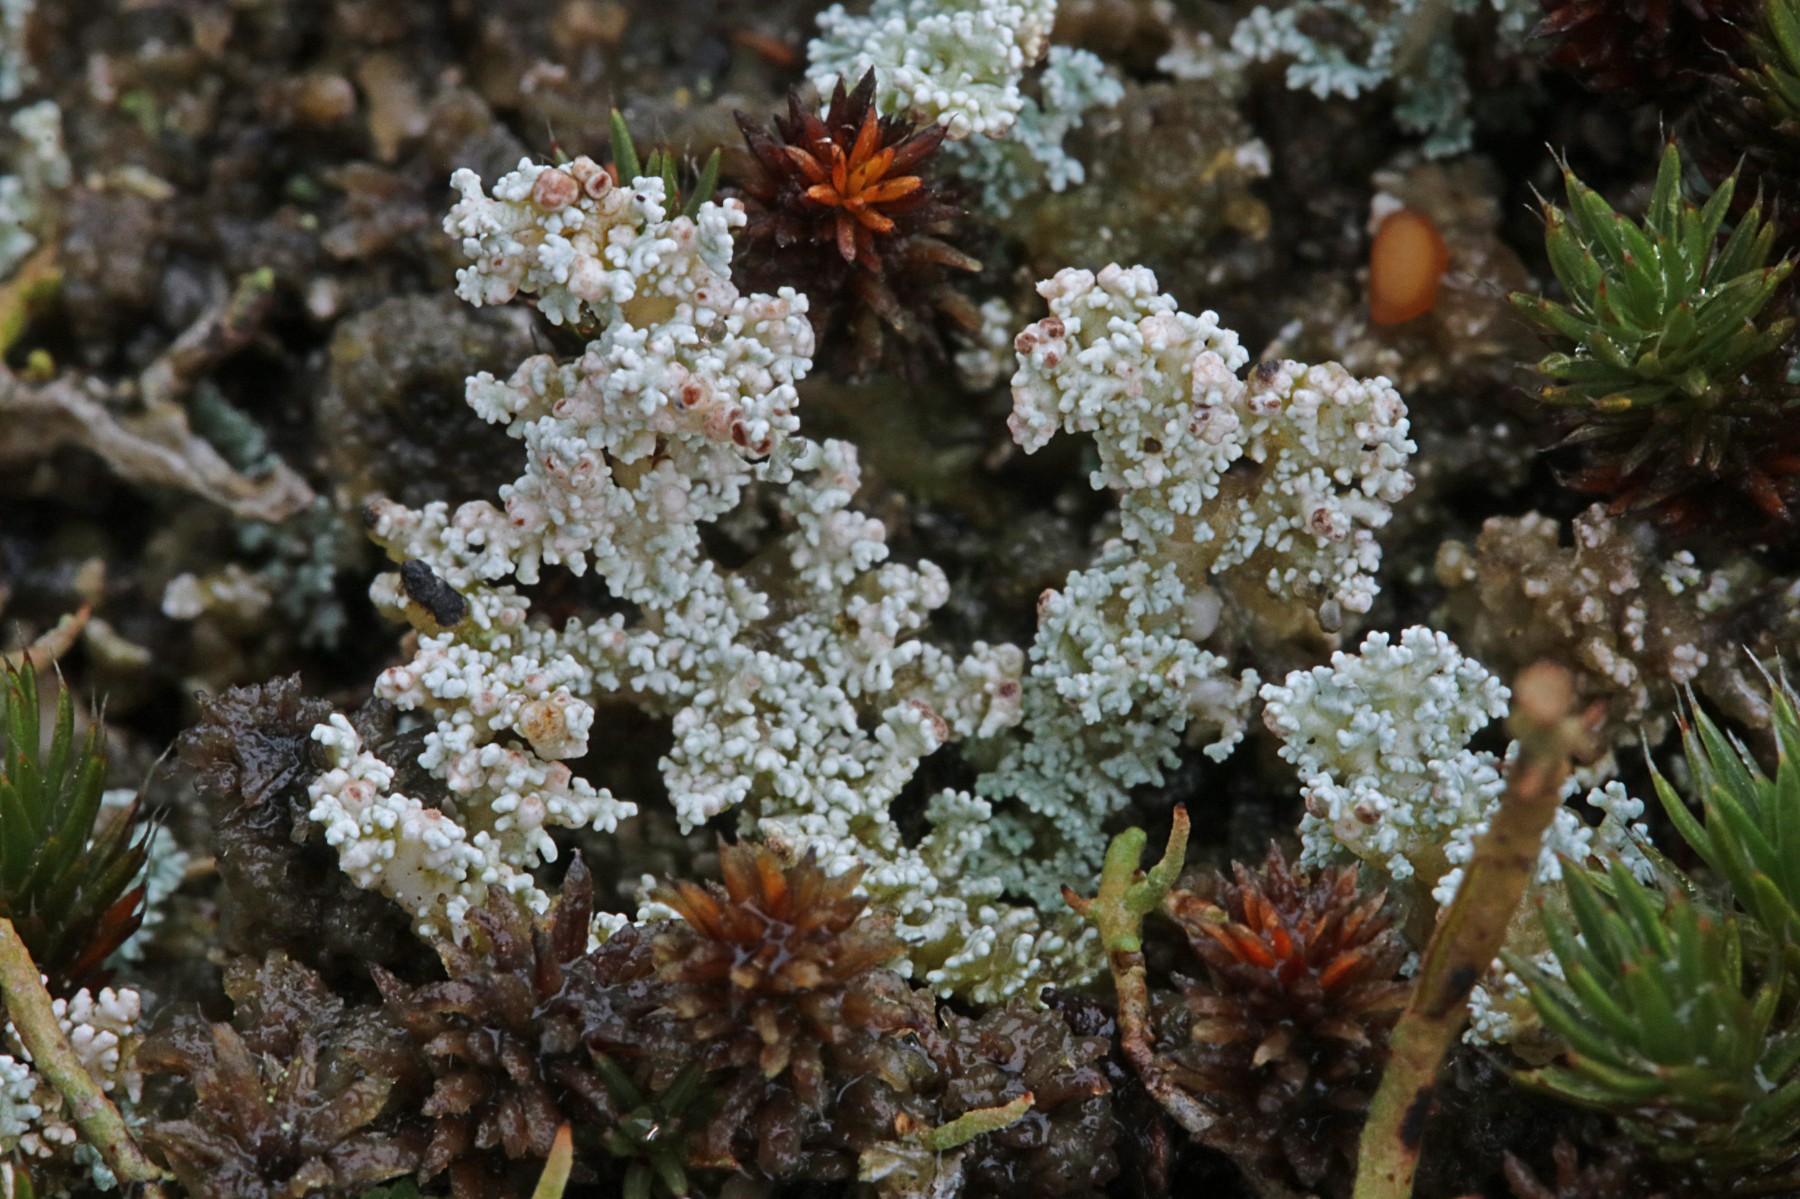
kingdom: Fungi
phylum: Ascomycota
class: Lecanoromycetes
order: Lecanorales
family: Stereocaulaceae
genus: Stereocaulon
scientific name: Stereocaulon saxatile
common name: klit-korallav
